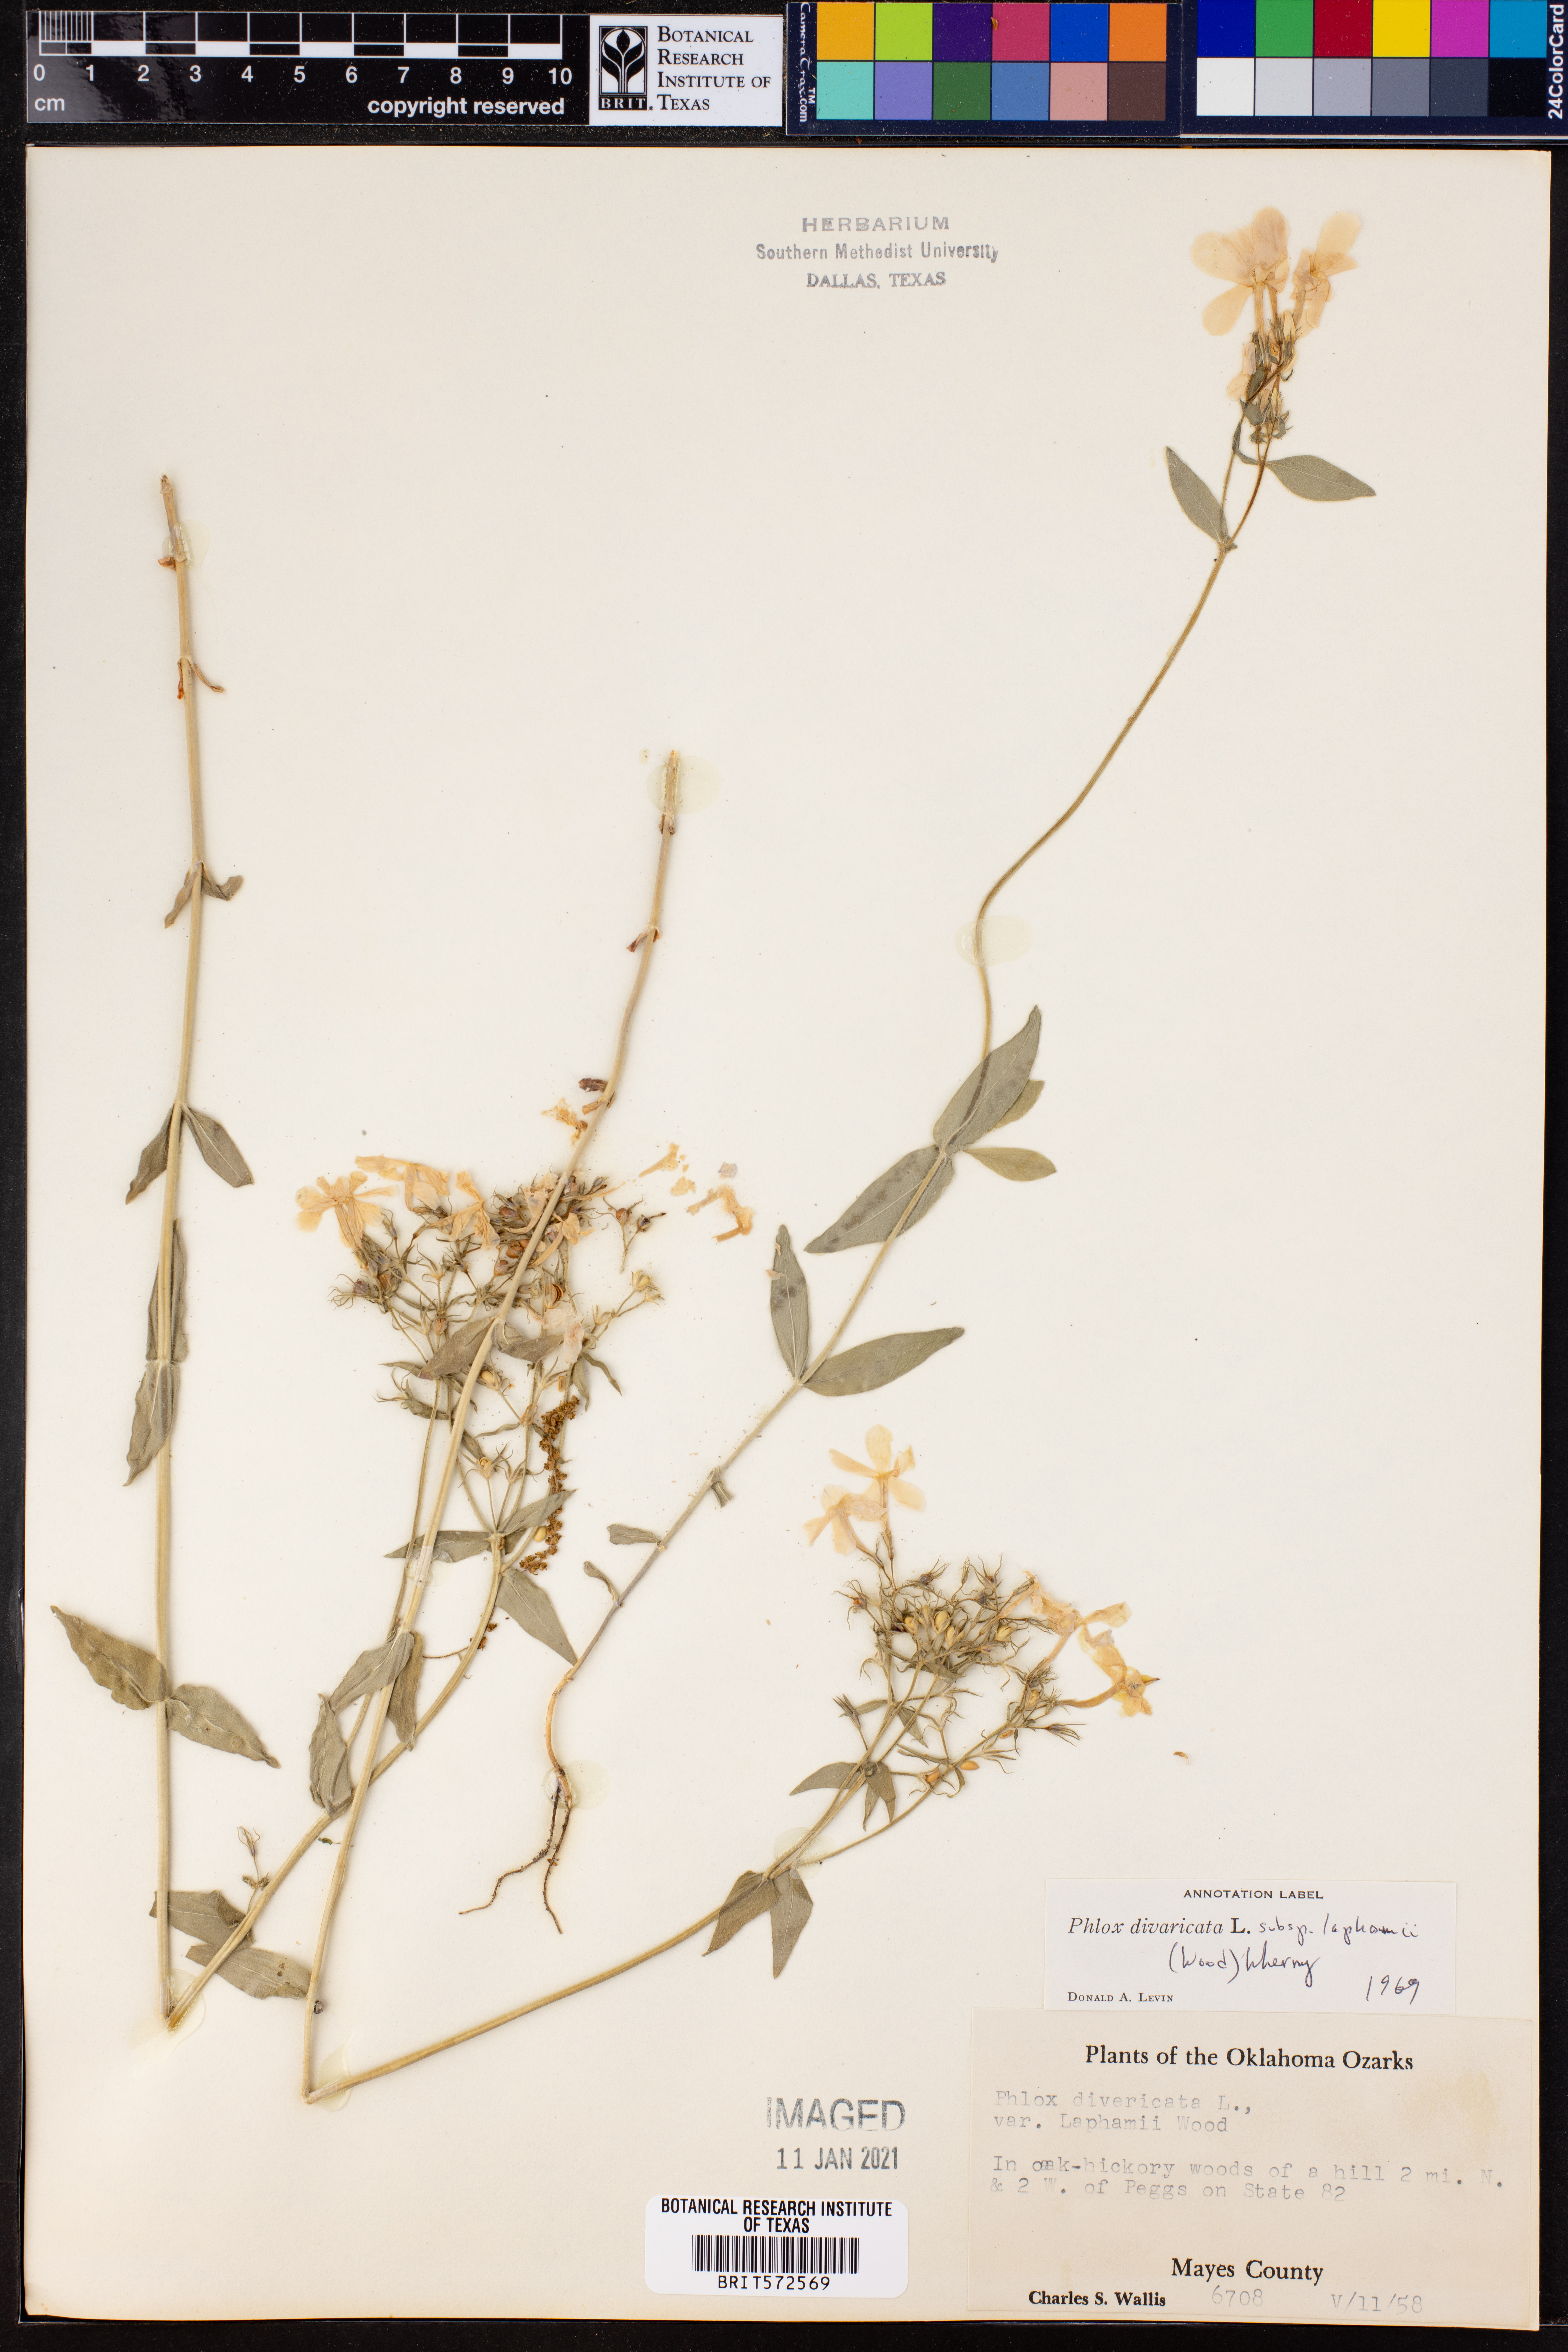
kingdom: Plantae
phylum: Tracheophyta
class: Magnoliopsida
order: Ericales
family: Polemoniaceae
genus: Phlox
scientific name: Phlox divaricata
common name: Blue phlox
